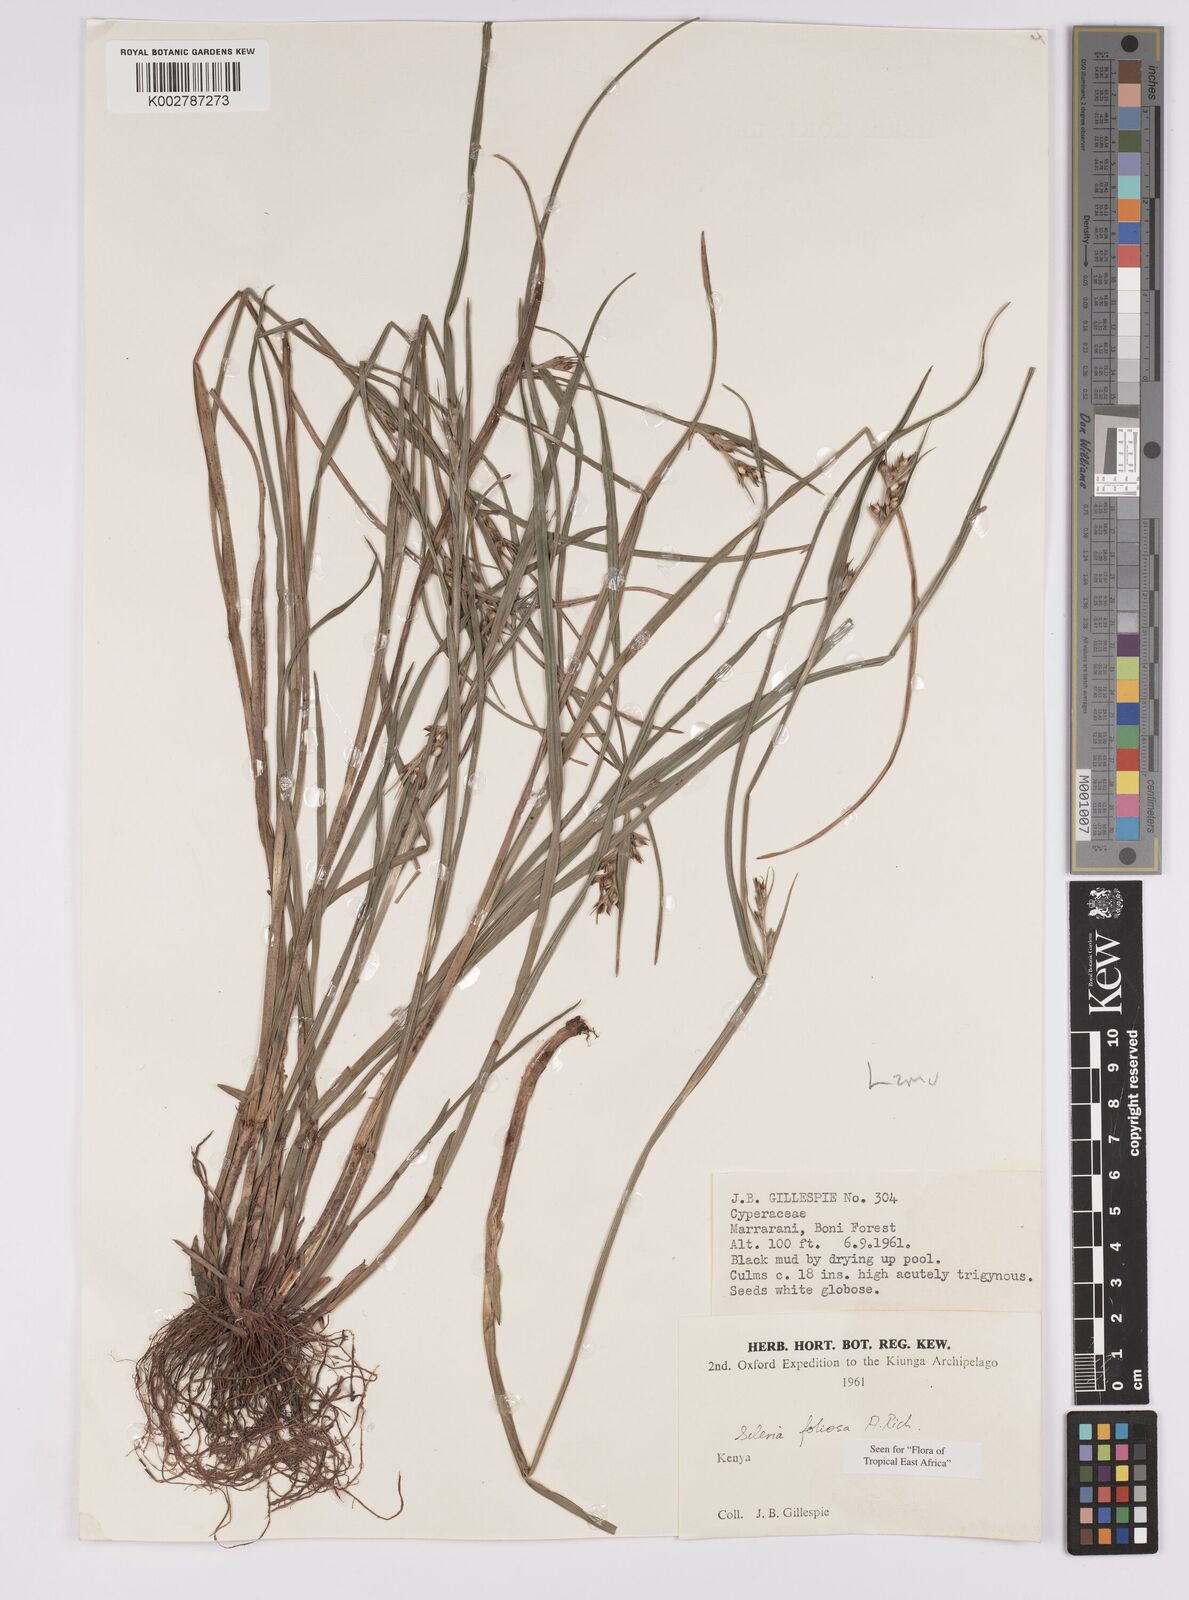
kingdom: Plantae
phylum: Tracheophyta
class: Liliopsida
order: Poales
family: Cyperaceae
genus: Scleria
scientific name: Scleria foliosa
